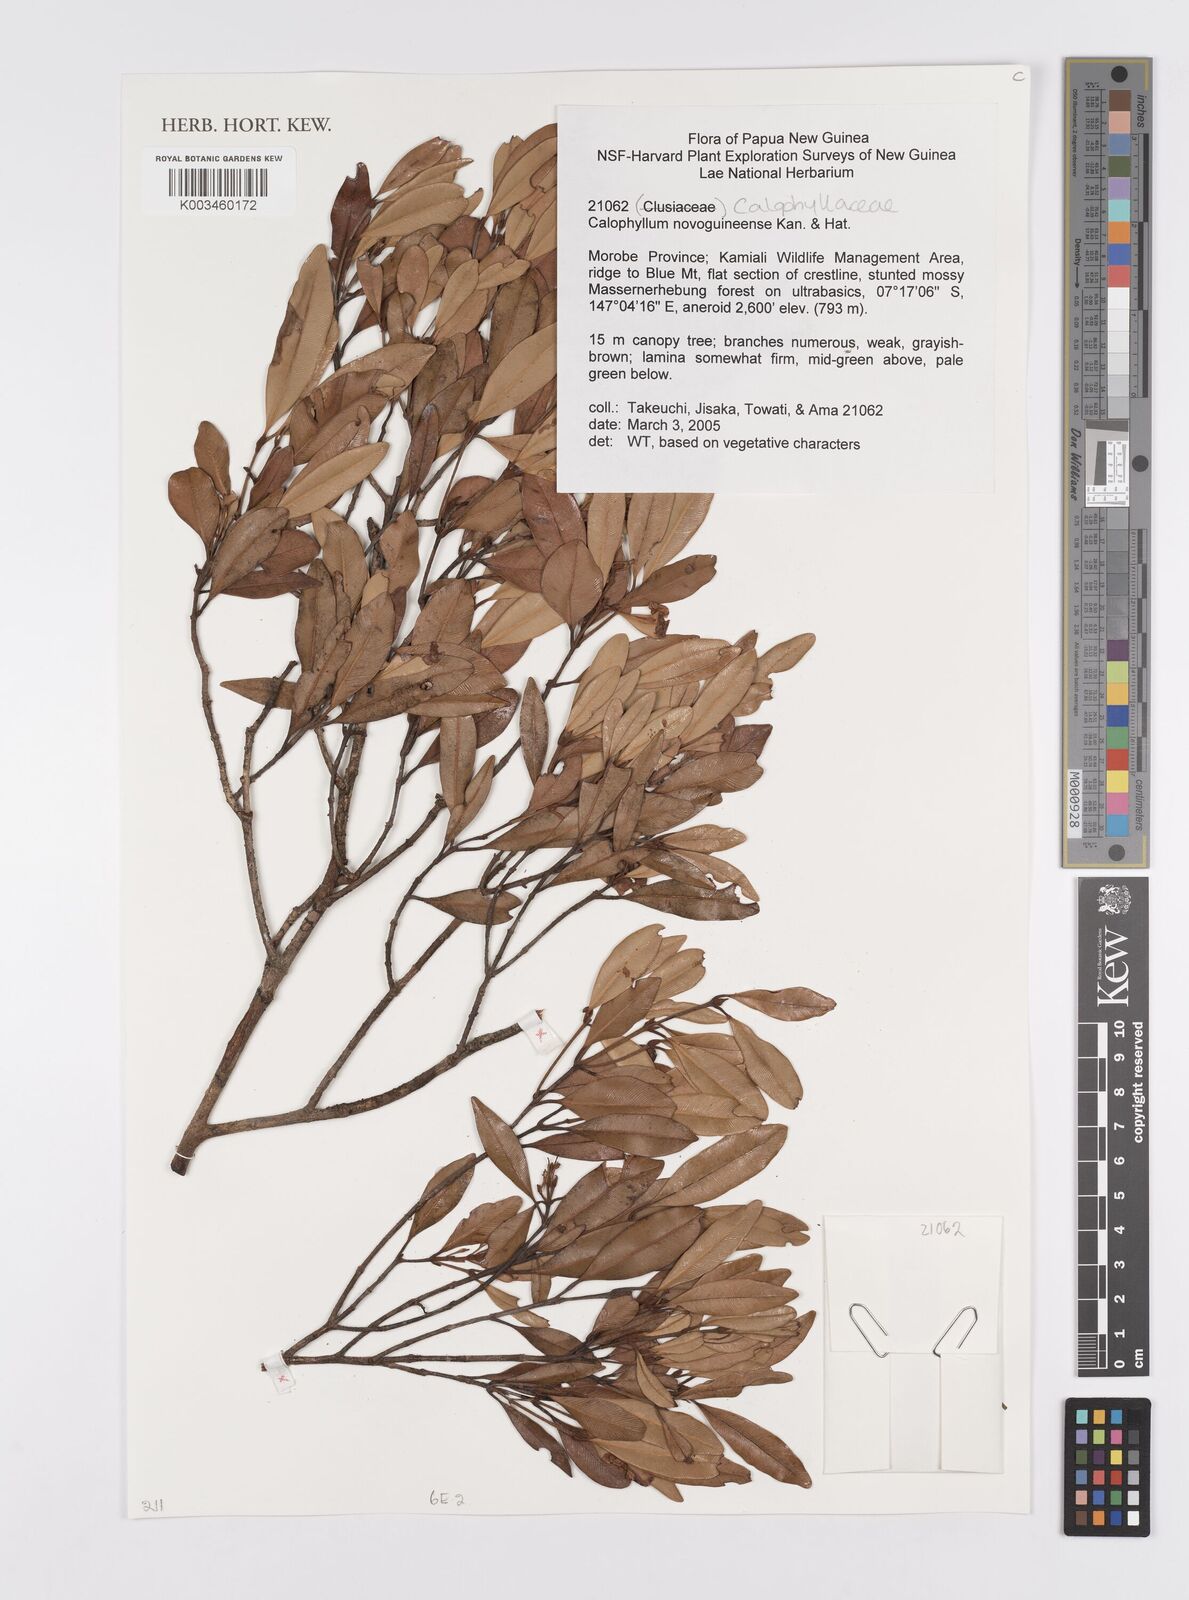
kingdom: Plantae
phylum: Tracheophyta
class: Magnoliopsida
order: Malpighiales
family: Calophyllaceae
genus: Calophyllum
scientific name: Calophyllum novoguineense
